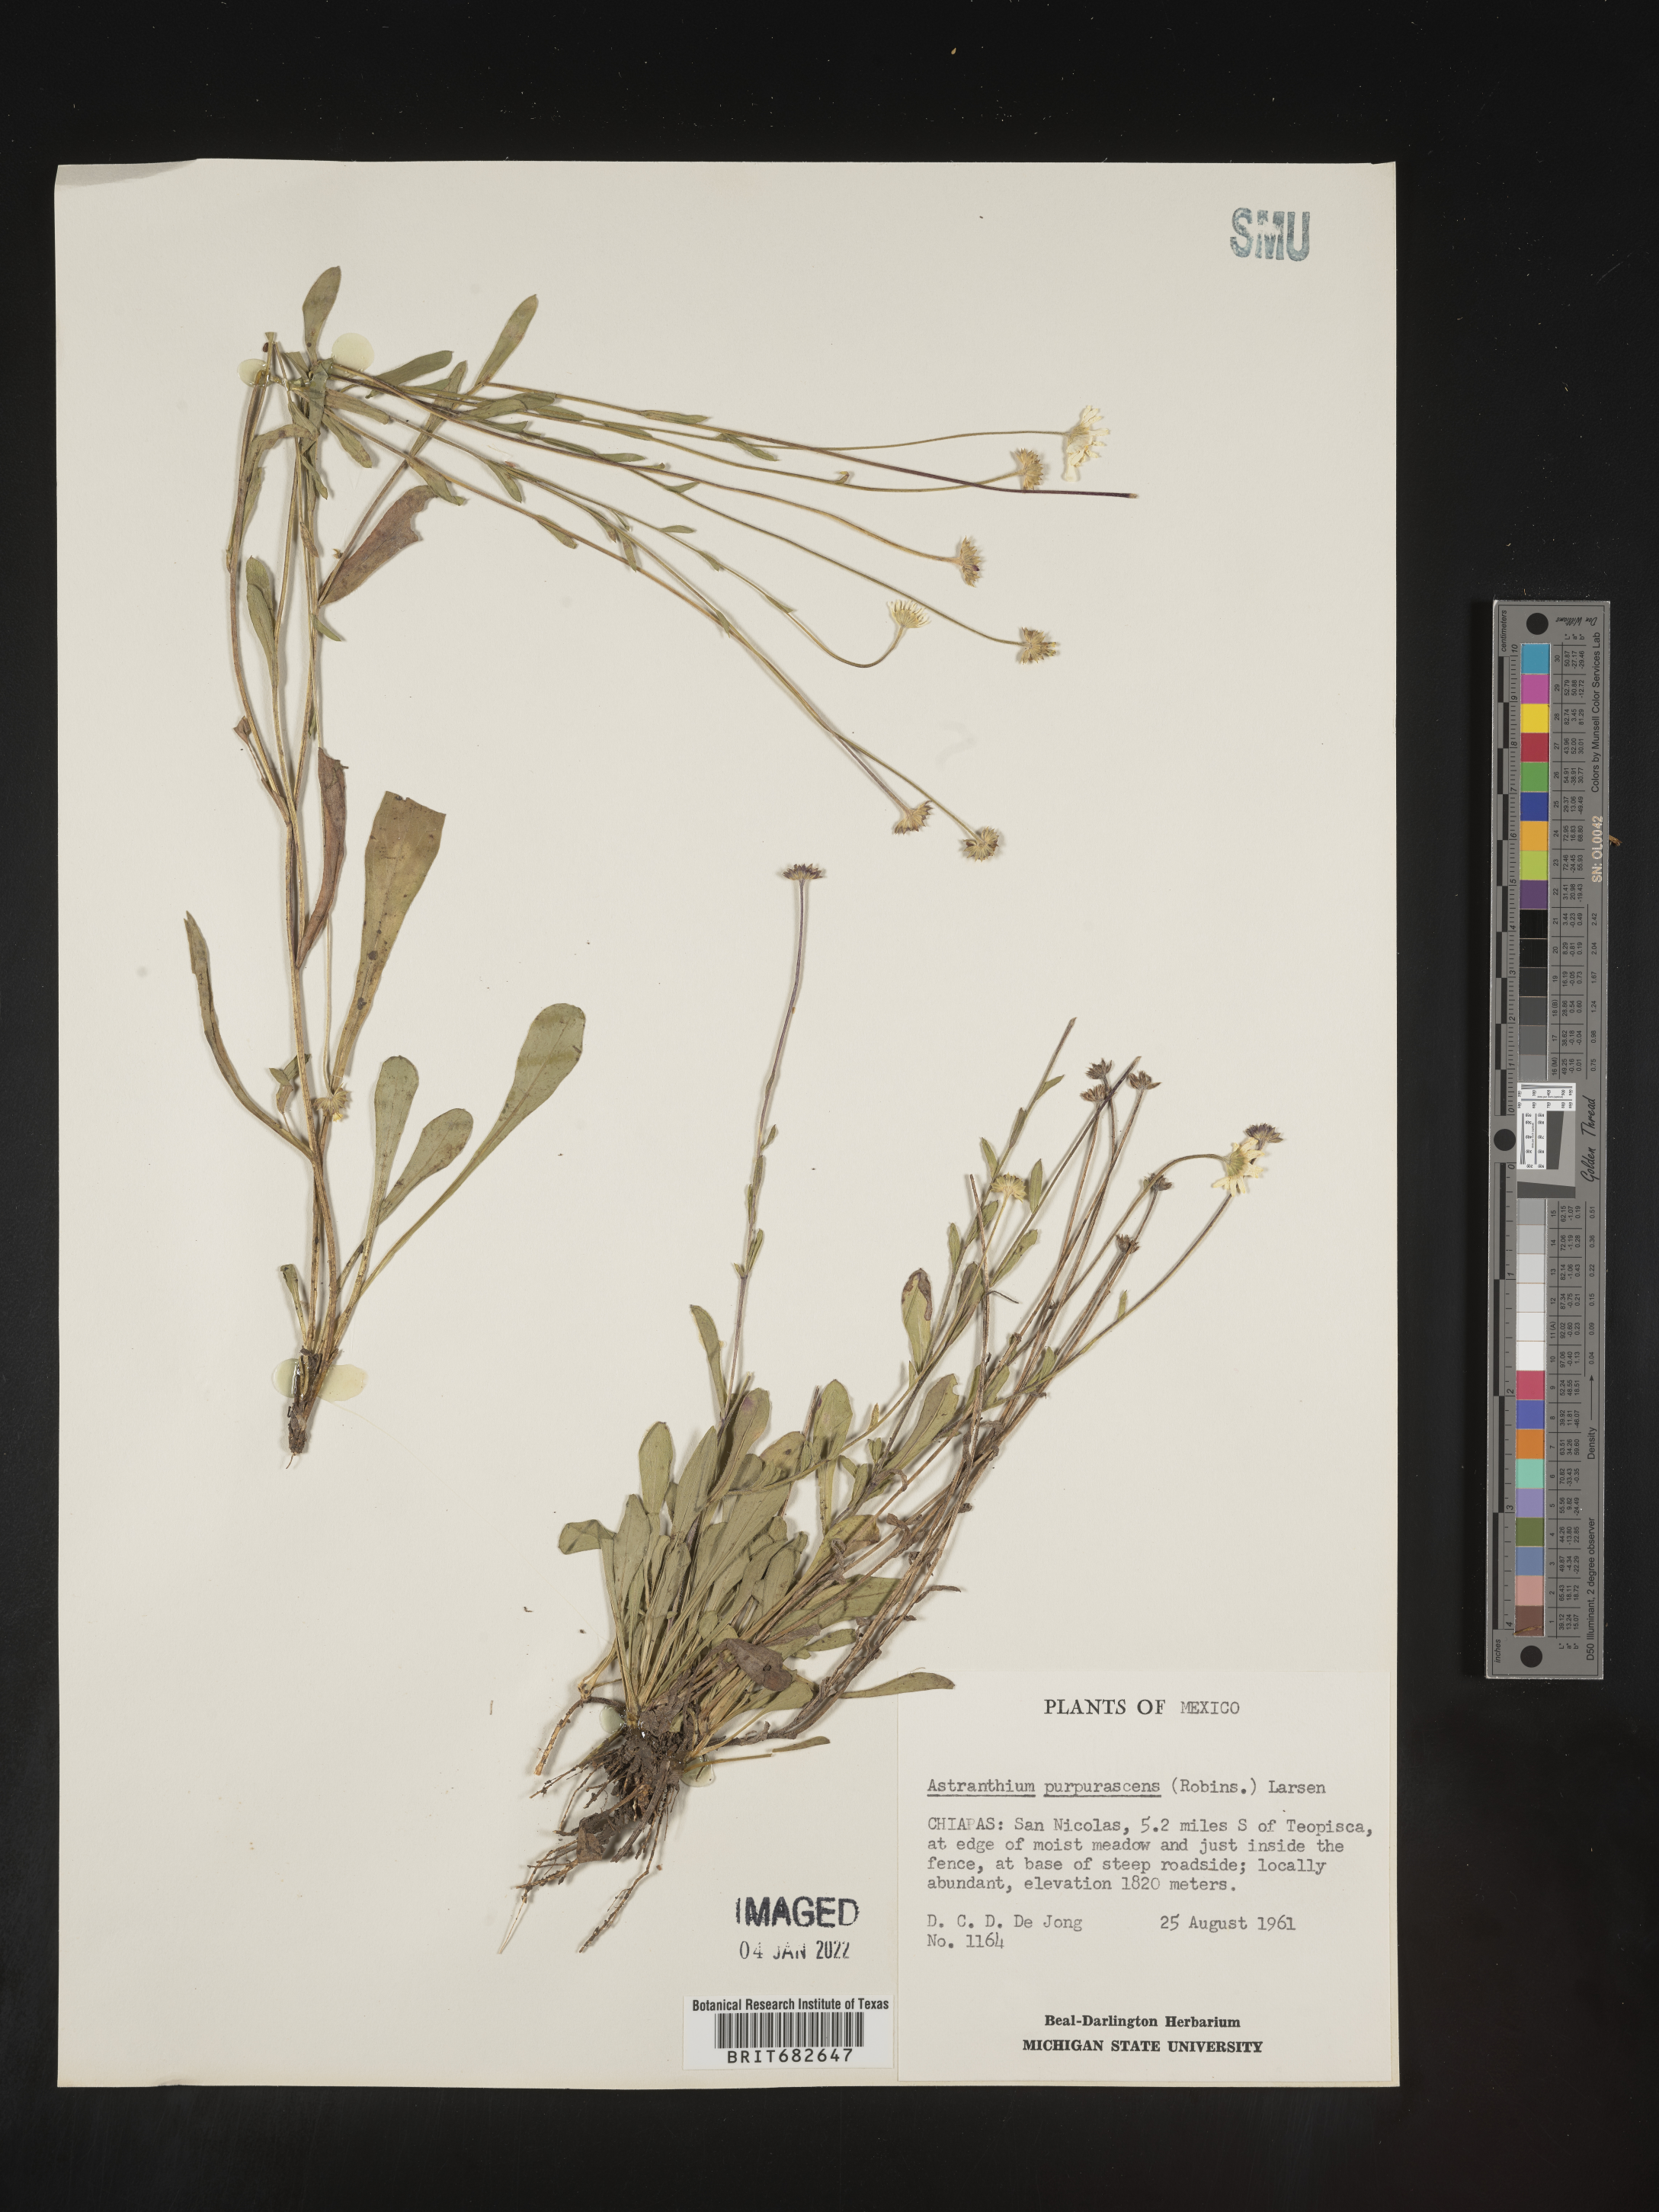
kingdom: Plantae
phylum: Tracheophyta
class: Magnoliopsida
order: Asterales
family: Asteraceae
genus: Astranthium
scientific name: Astranthium
